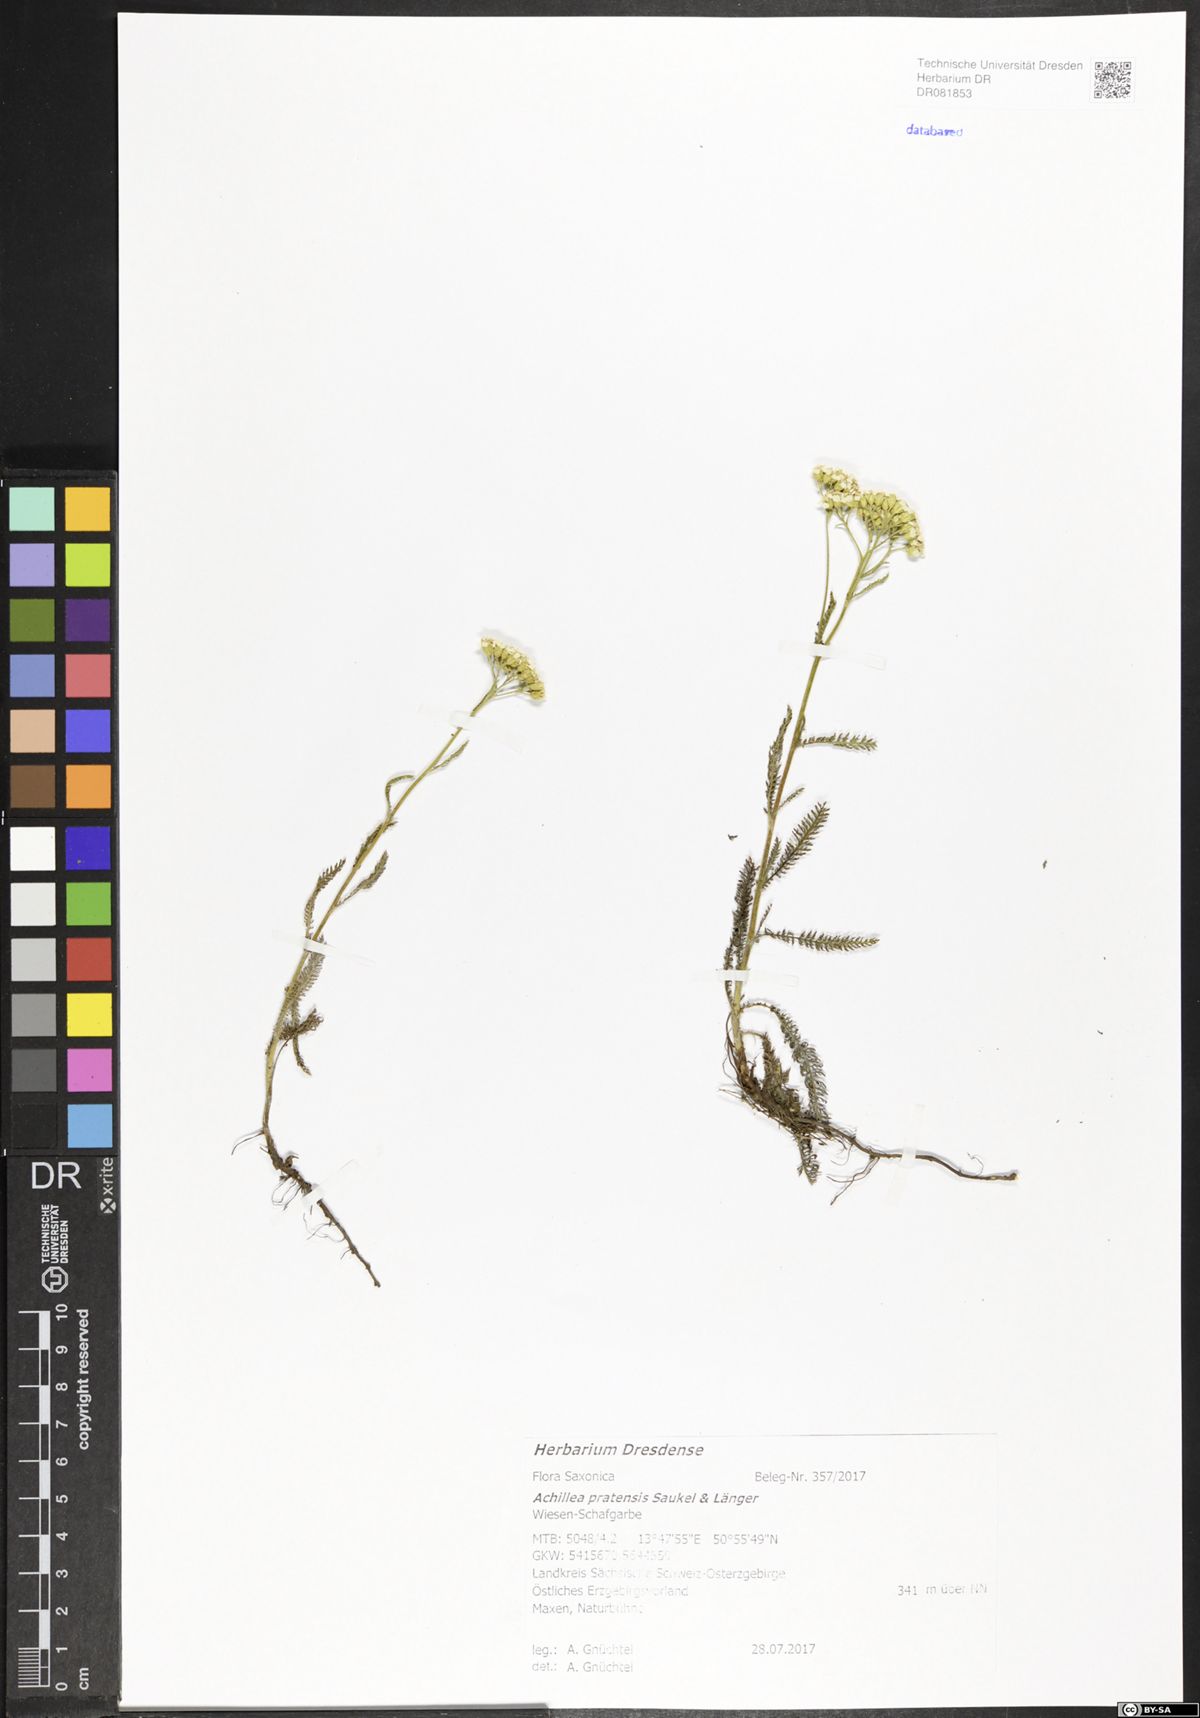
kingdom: Plantae
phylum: Tracheophyta
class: Magnoliopsida
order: Asterales
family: Asteraceae
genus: Achillea
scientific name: Achillea pratensis
